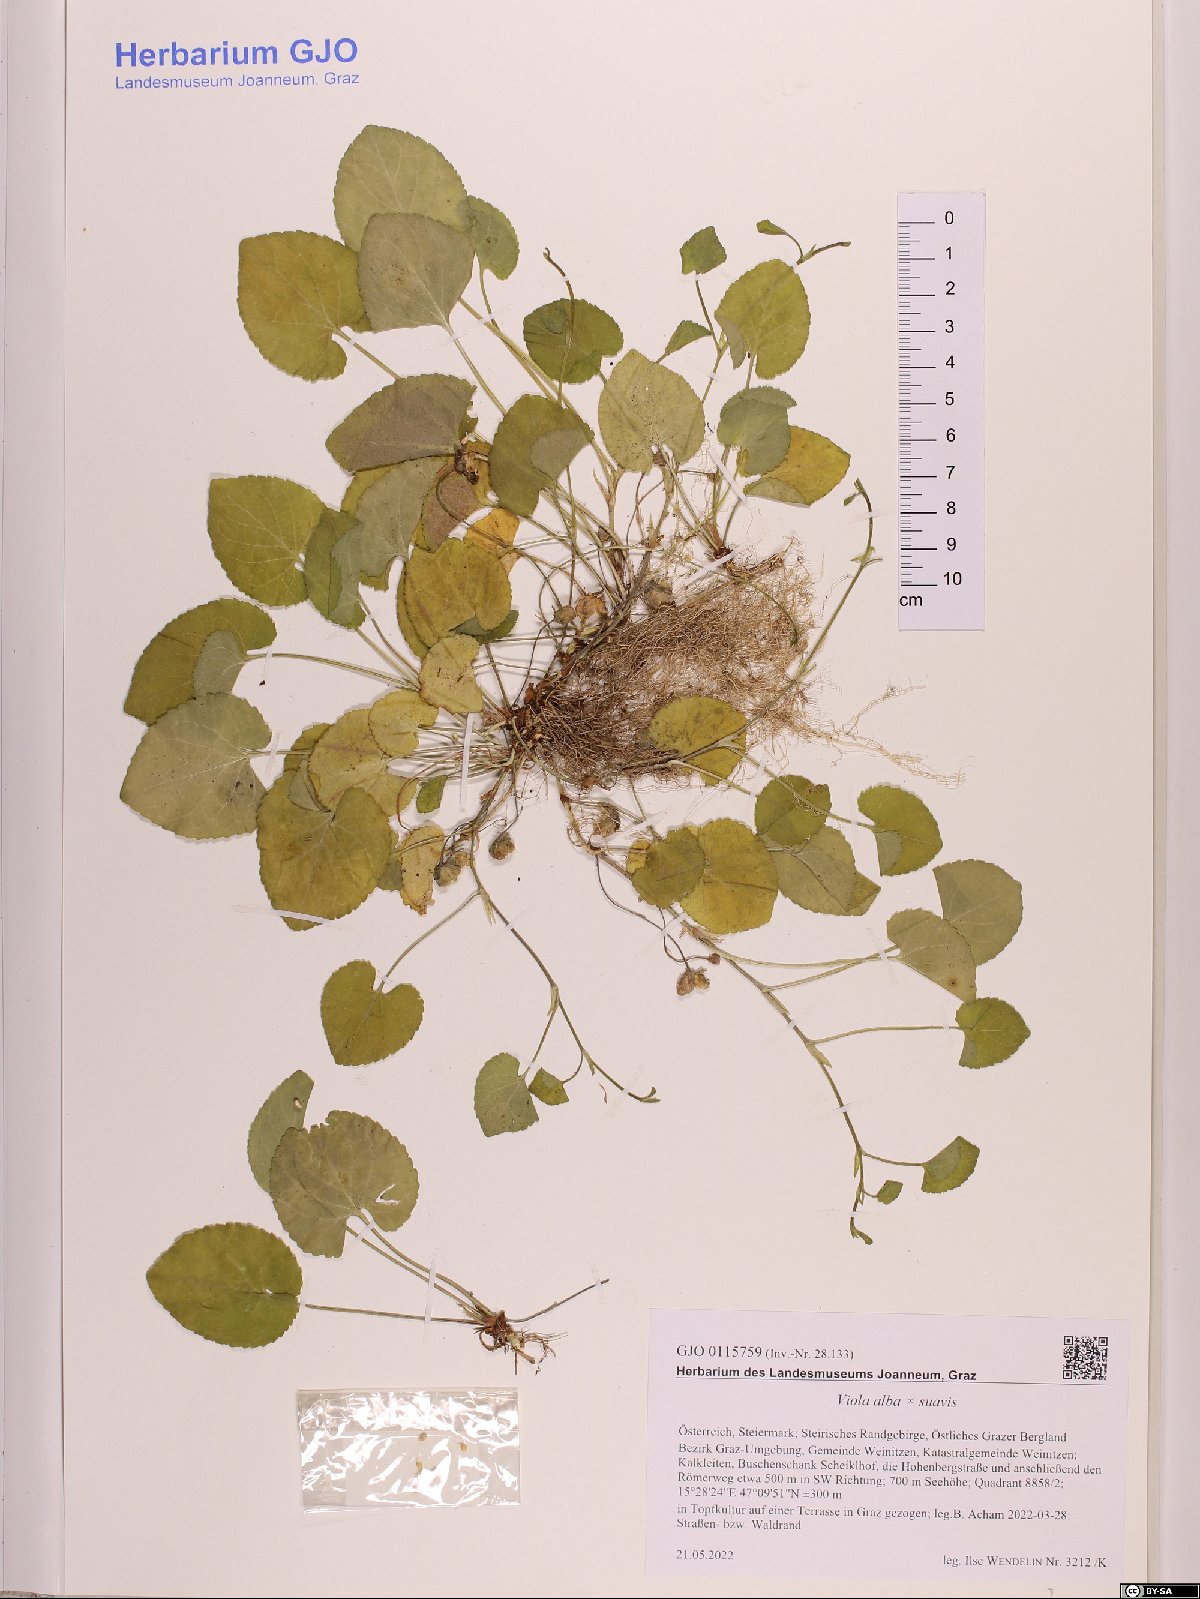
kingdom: Plantae
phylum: Tracheophyta
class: Magnoliopsida
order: Malpighiales
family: Violaceae
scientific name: Violaceae
